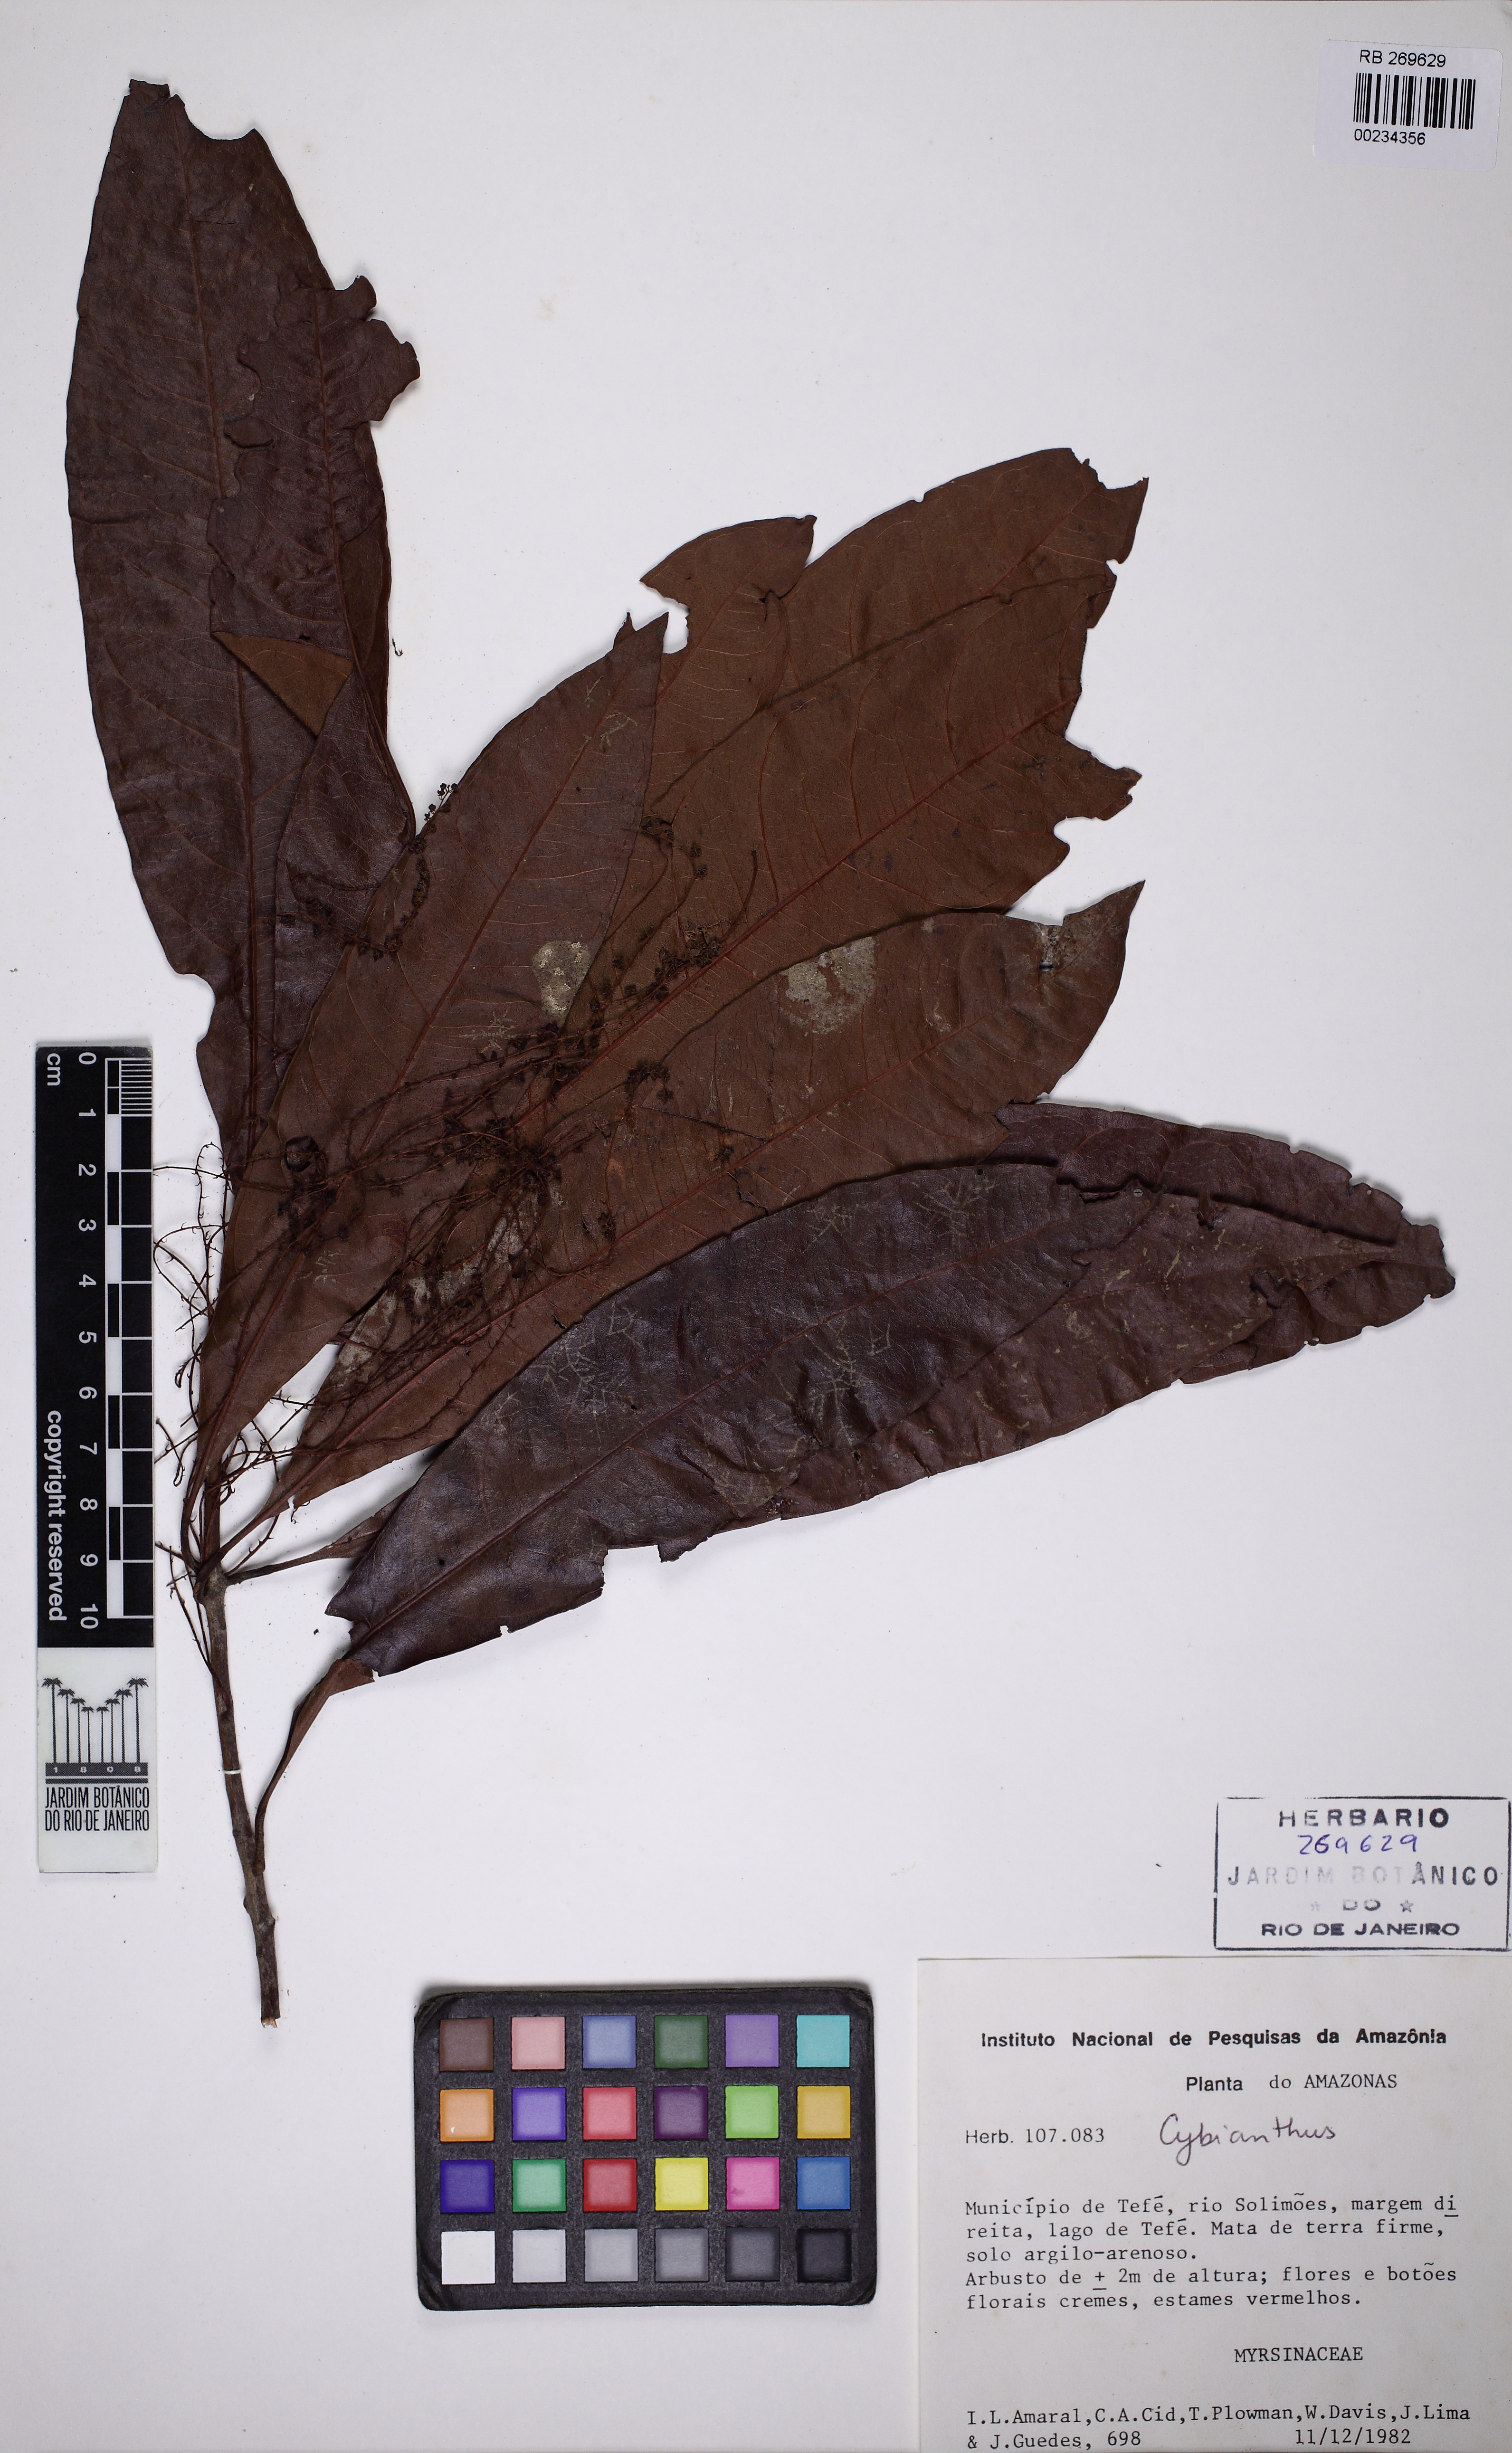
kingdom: Plantae
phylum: Tracheophyta
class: Magnoliopsida
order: Ericales
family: Primulaceae
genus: Cybianthus
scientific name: Cybianthus
